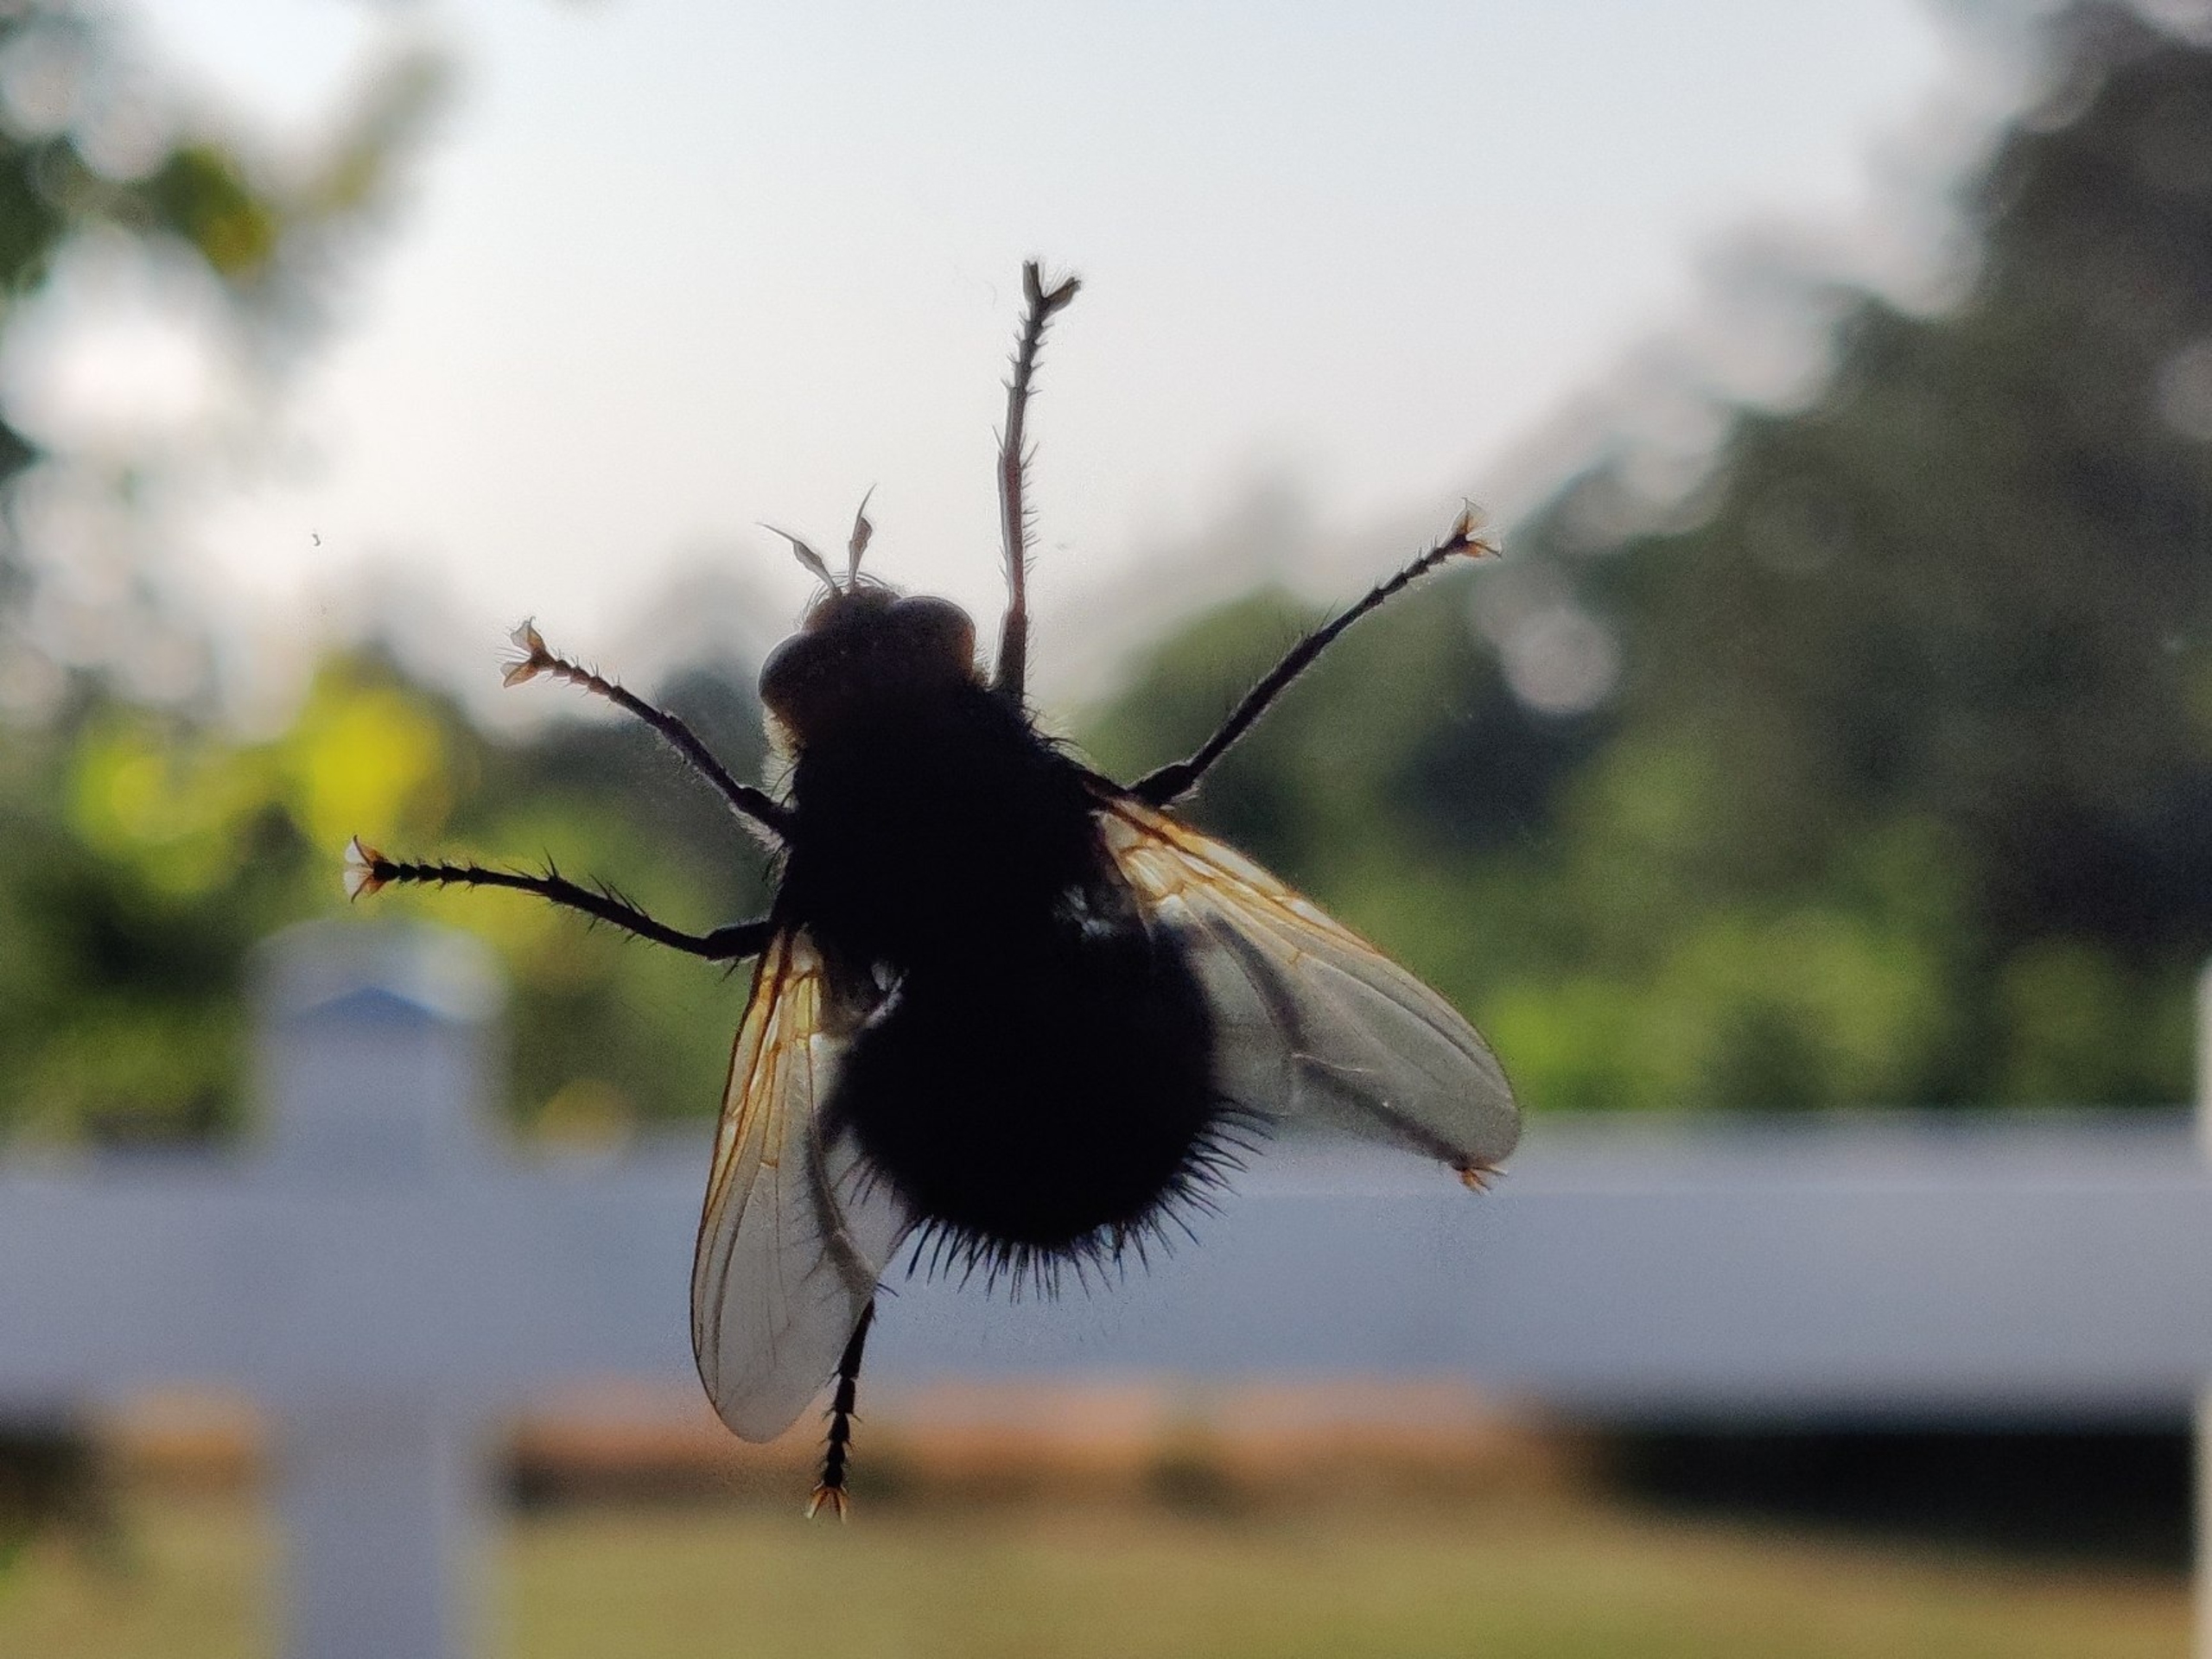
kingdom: Animalia
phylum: Arthropoda
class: Insecta
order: Diptera
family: Tachinidae
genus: Tachina
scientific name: Tachina grossa
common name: Kæmpefluen Harald
